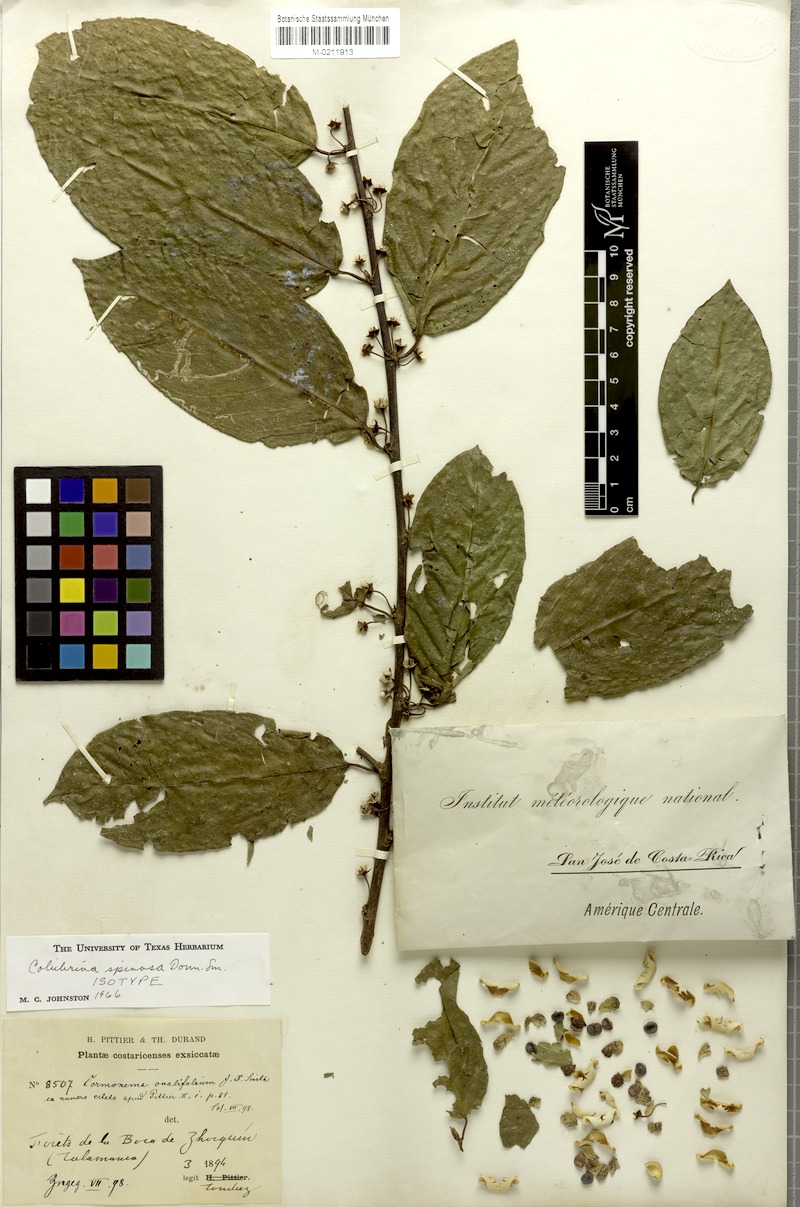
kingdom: Plantae
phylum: Tracheophyta
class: Magnoliopsida
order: Rosales
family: Rhamnaceae
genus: Colubrina
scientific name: Colubrina spinosa
